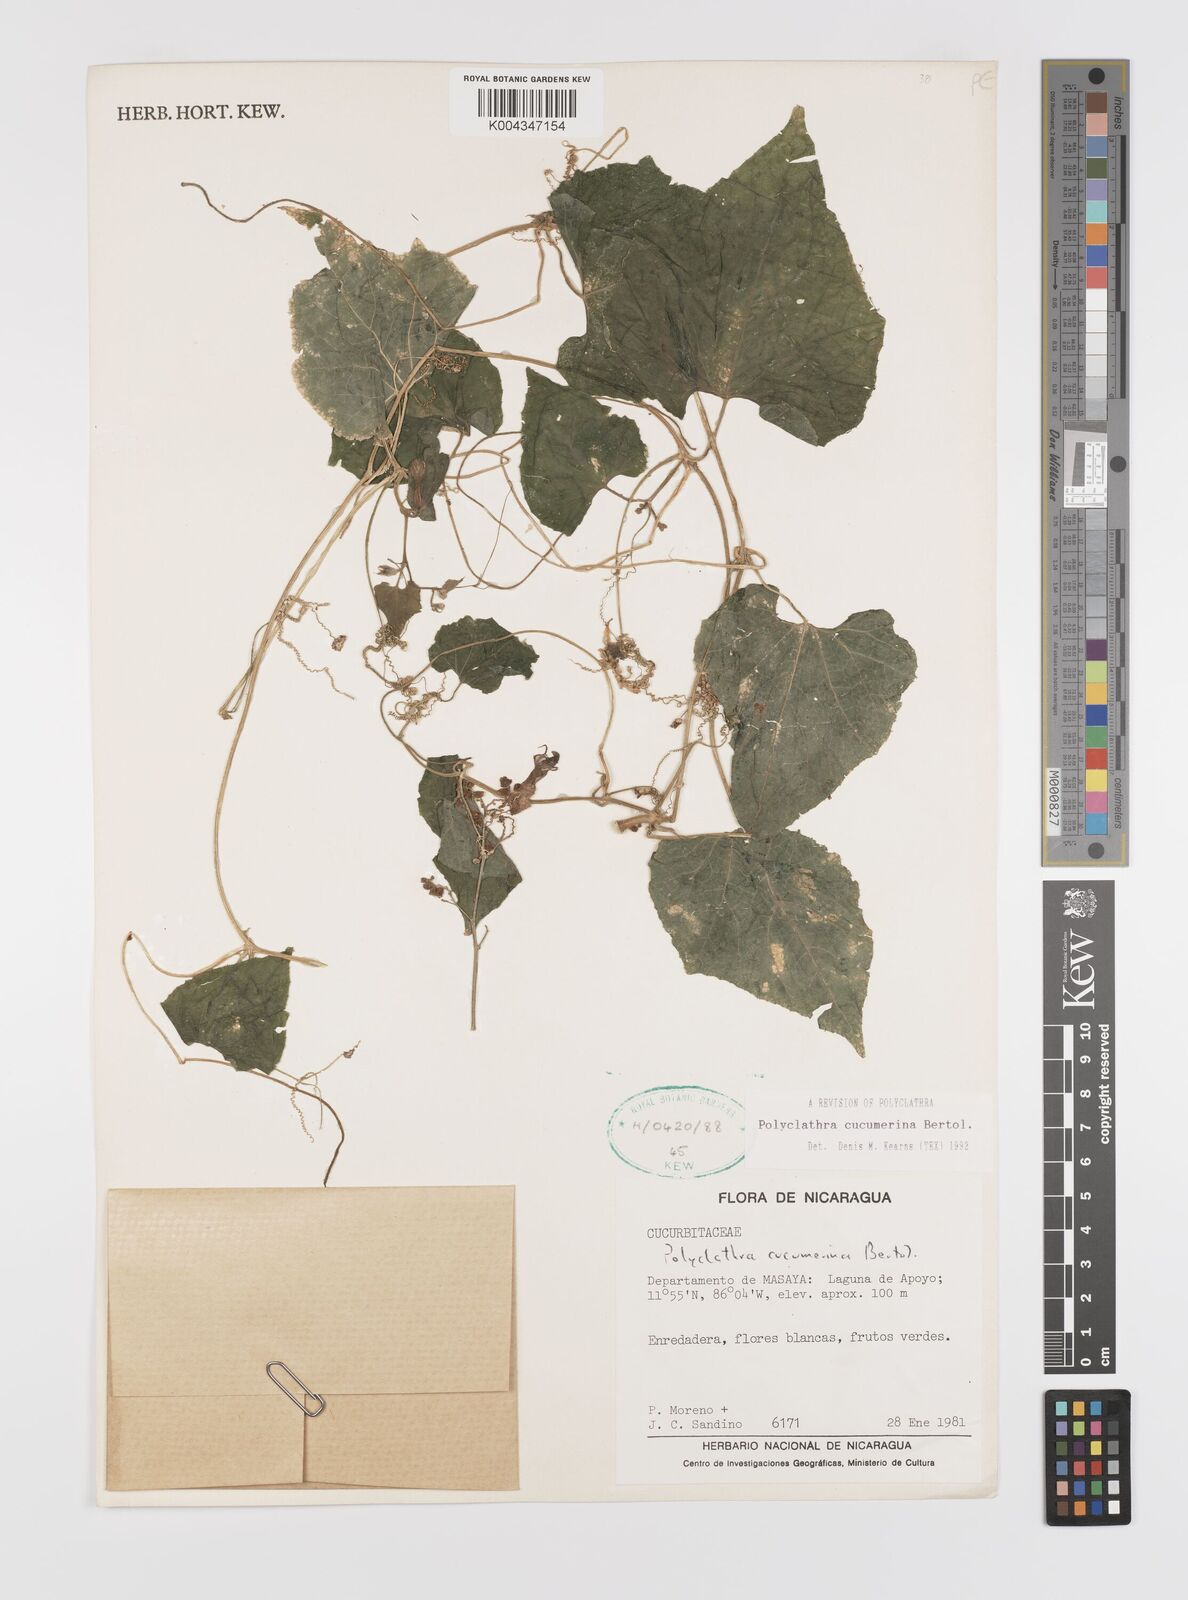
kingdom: Plantae
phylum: Tracheophyta
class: Magnoliopsida
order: Cucurbitales
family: Cucurbitaceae
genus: Polyclathra
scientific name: Polyclathra cucumerina
